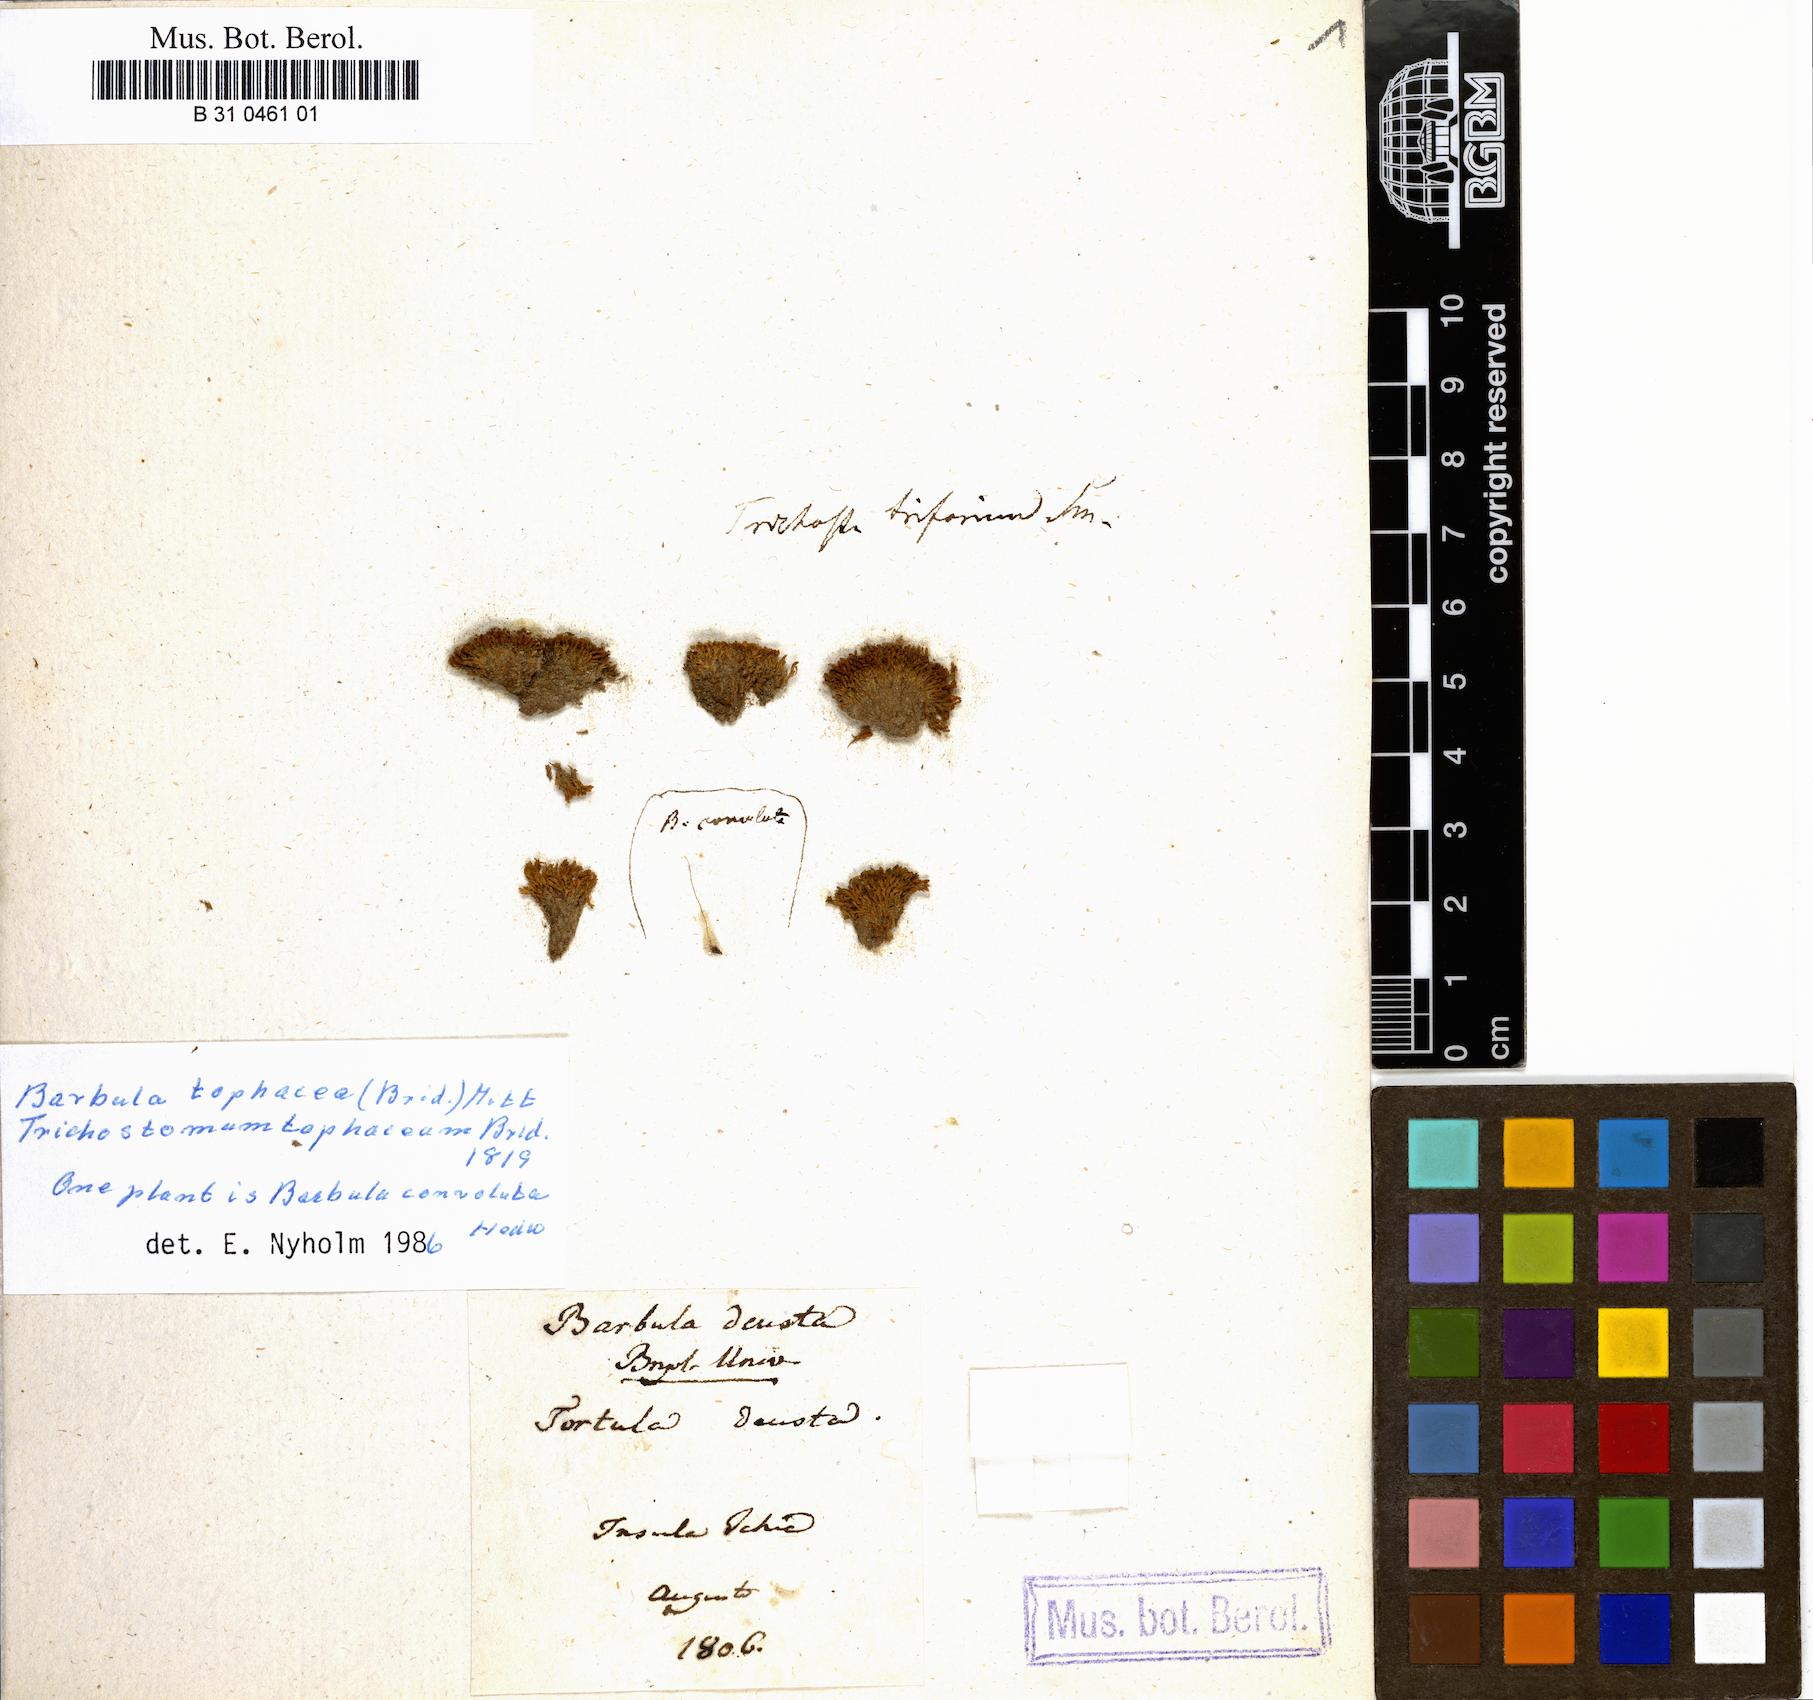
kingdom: Plantae
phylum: Bryophyta
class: Bryopsida
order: Pottiales
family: Pottiaceae
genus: Streblotrichum
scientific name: Streblotrichum convolutum
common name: Lesser bird's-claw beard-moss
